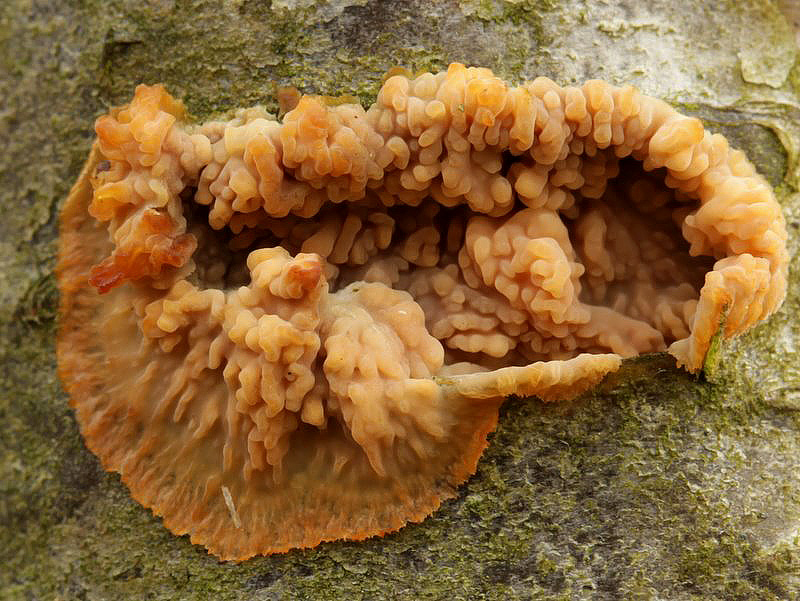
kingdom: Fungi
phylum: Basidiomycota
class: Agaricomycetes
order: Polyporales
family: Meruliaceae
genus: Phlebia
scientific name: Phlebia radiata
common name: stråle-åresvamp
